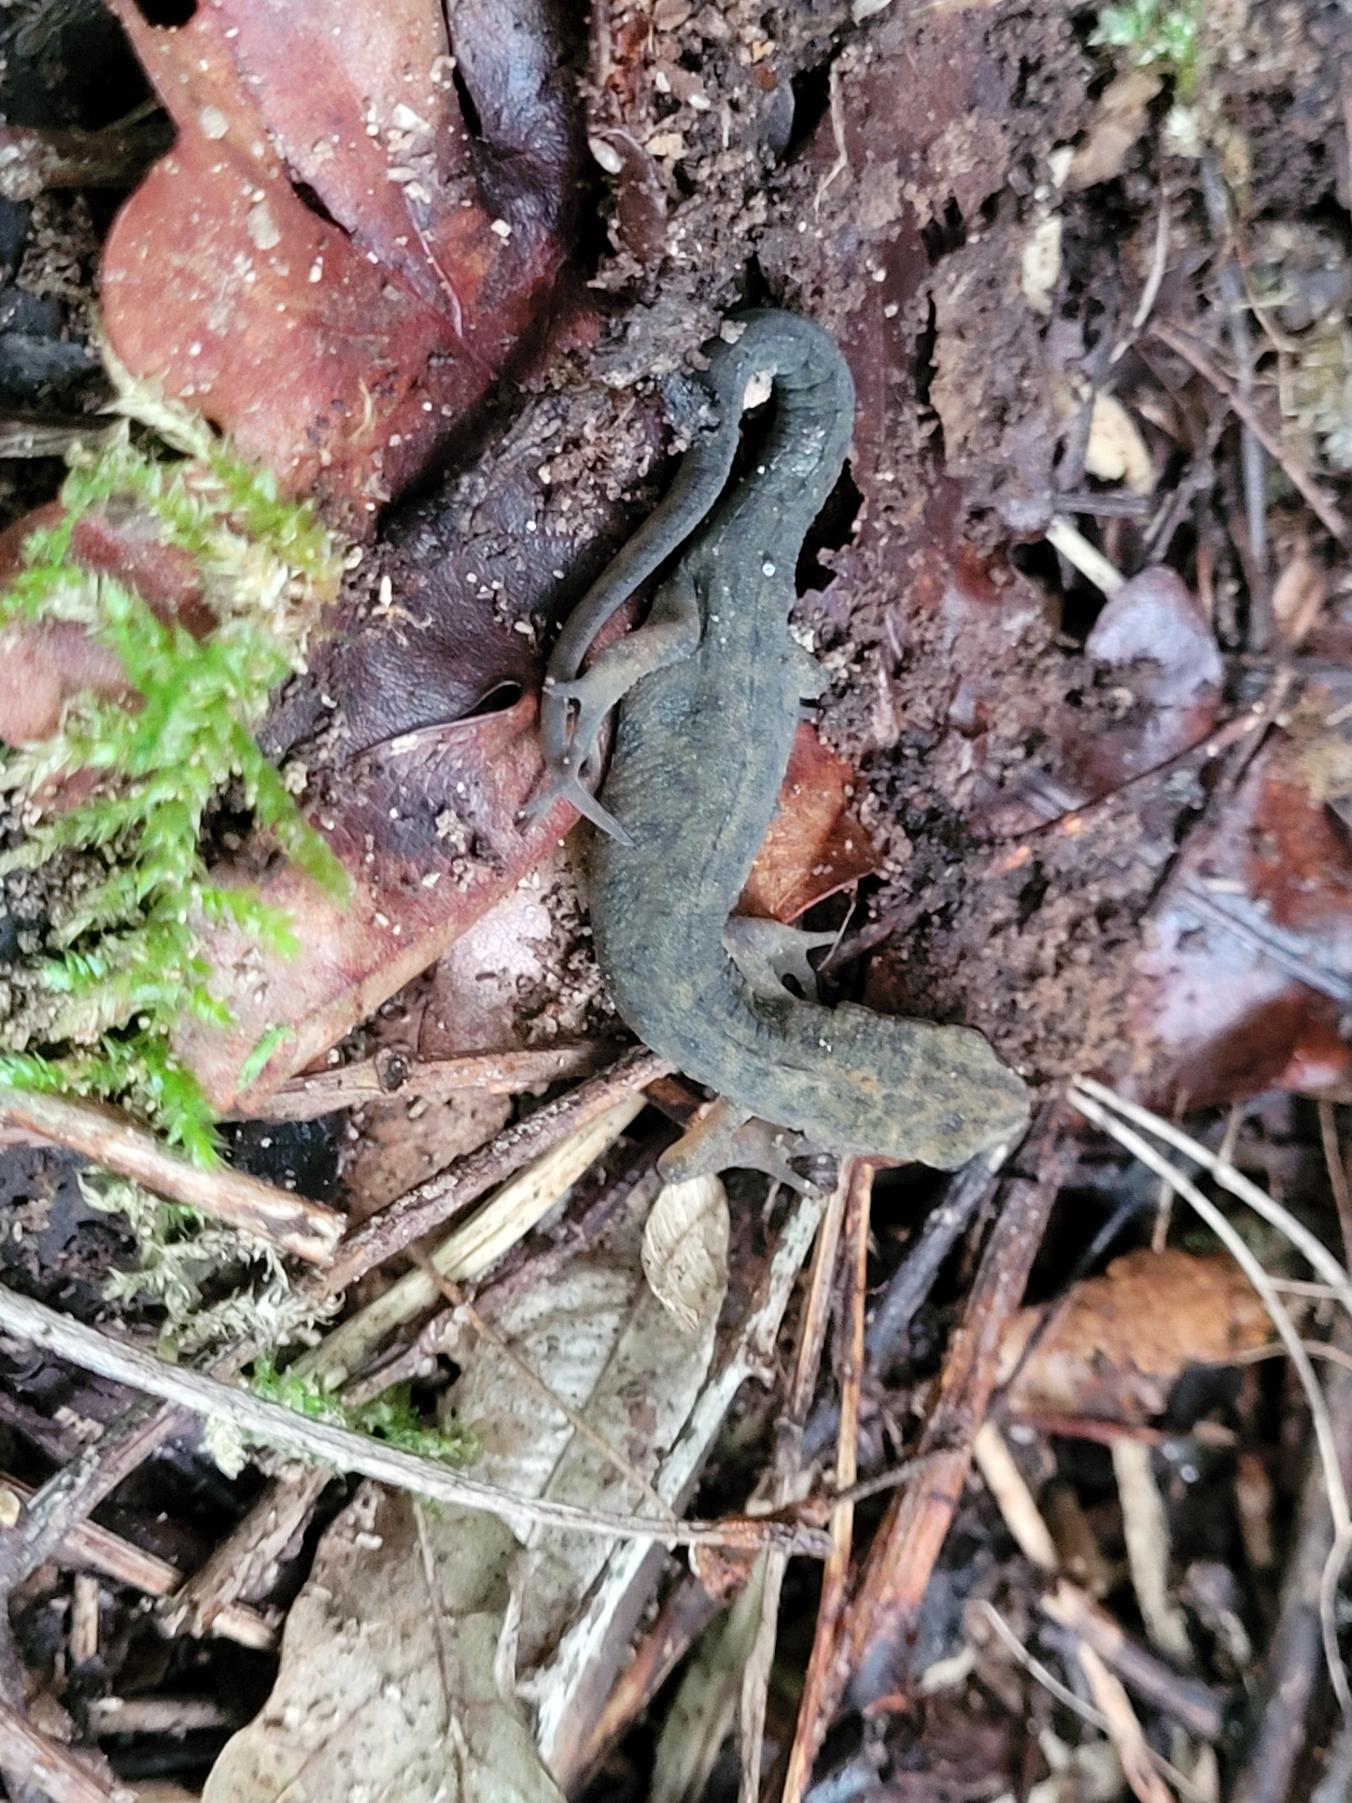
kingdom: Animalia
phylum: Chordata
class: Amphibia
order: Caudata
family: Salamandridae
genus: Lissotriton
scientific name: Lissotriton vulgaris
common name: Lille vandsalamander
